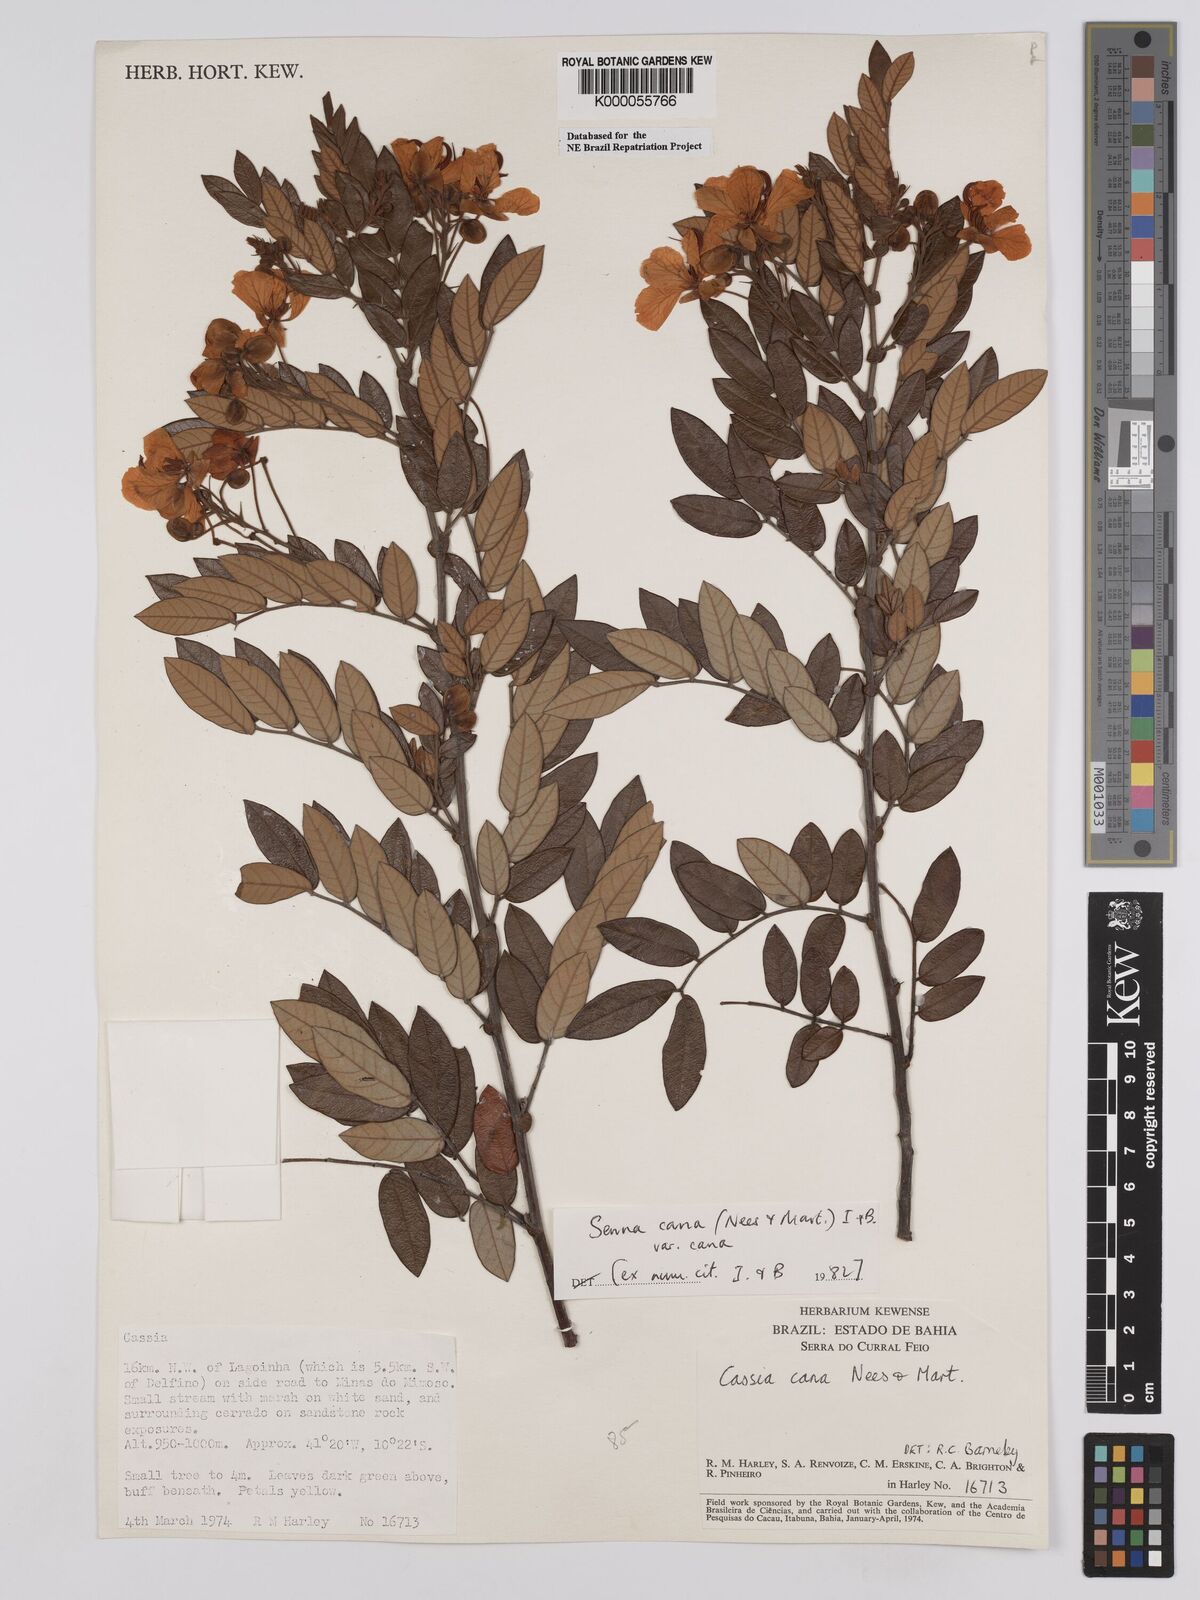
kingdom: Plantae
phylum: Tracheophyta
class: Magnoliopsida
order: Fabales
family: Fabaceae
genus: Senna
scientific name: Senna cana
